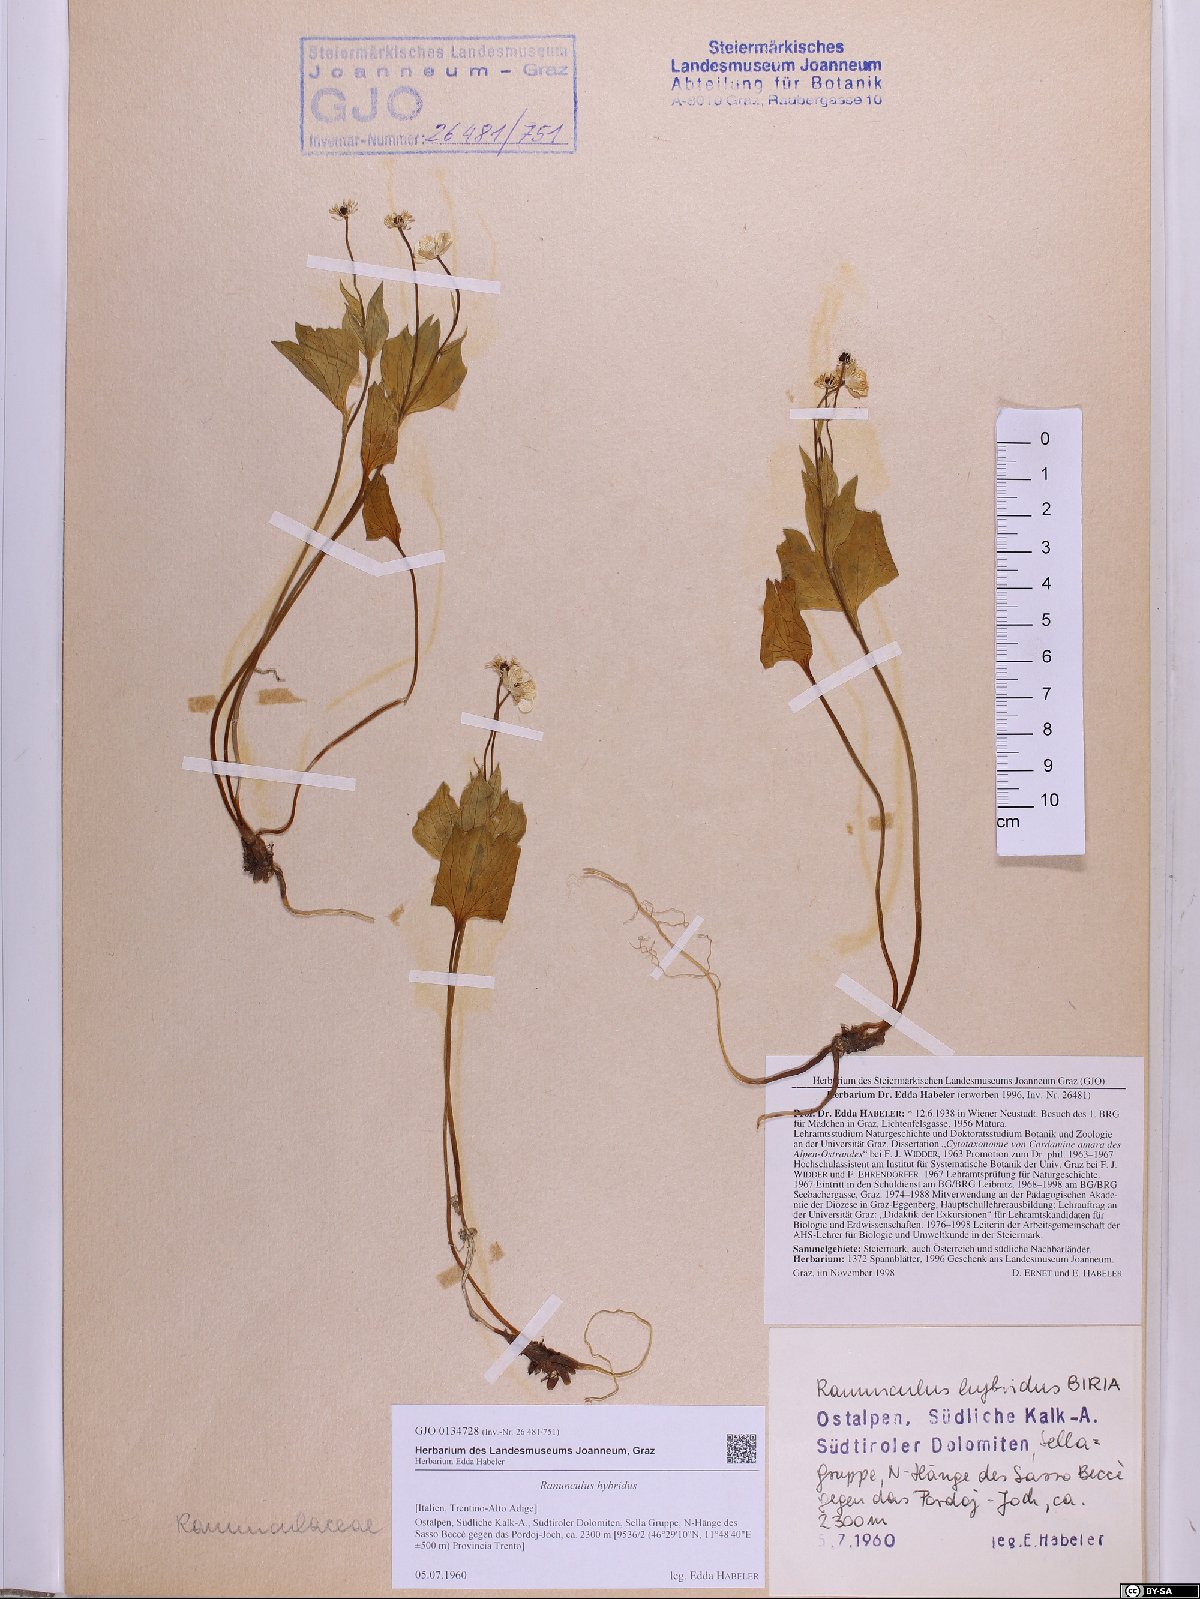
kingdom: Plantae
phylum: Tracheophyta
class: Magnoliopsida
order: Ranunculales
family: Ranunculaceae
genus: Ranunculus
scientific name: Ranunculus hybridus
